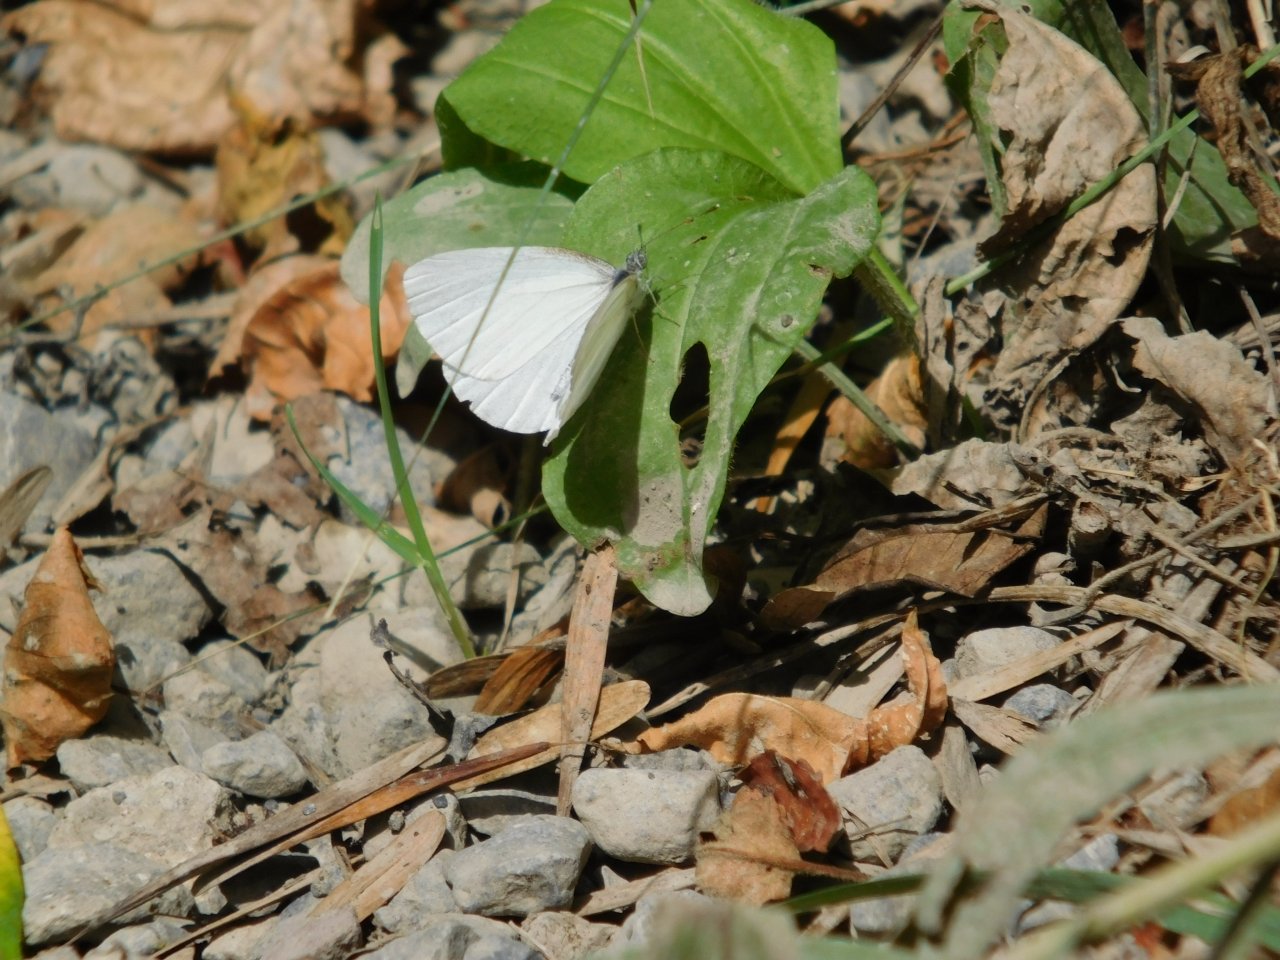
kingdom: Animalia
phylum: Arthropoda
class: Insecta
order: Lepidoptera
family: Pieridae
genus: Pieris
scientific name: Pieris oleracea
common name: Mustard White
